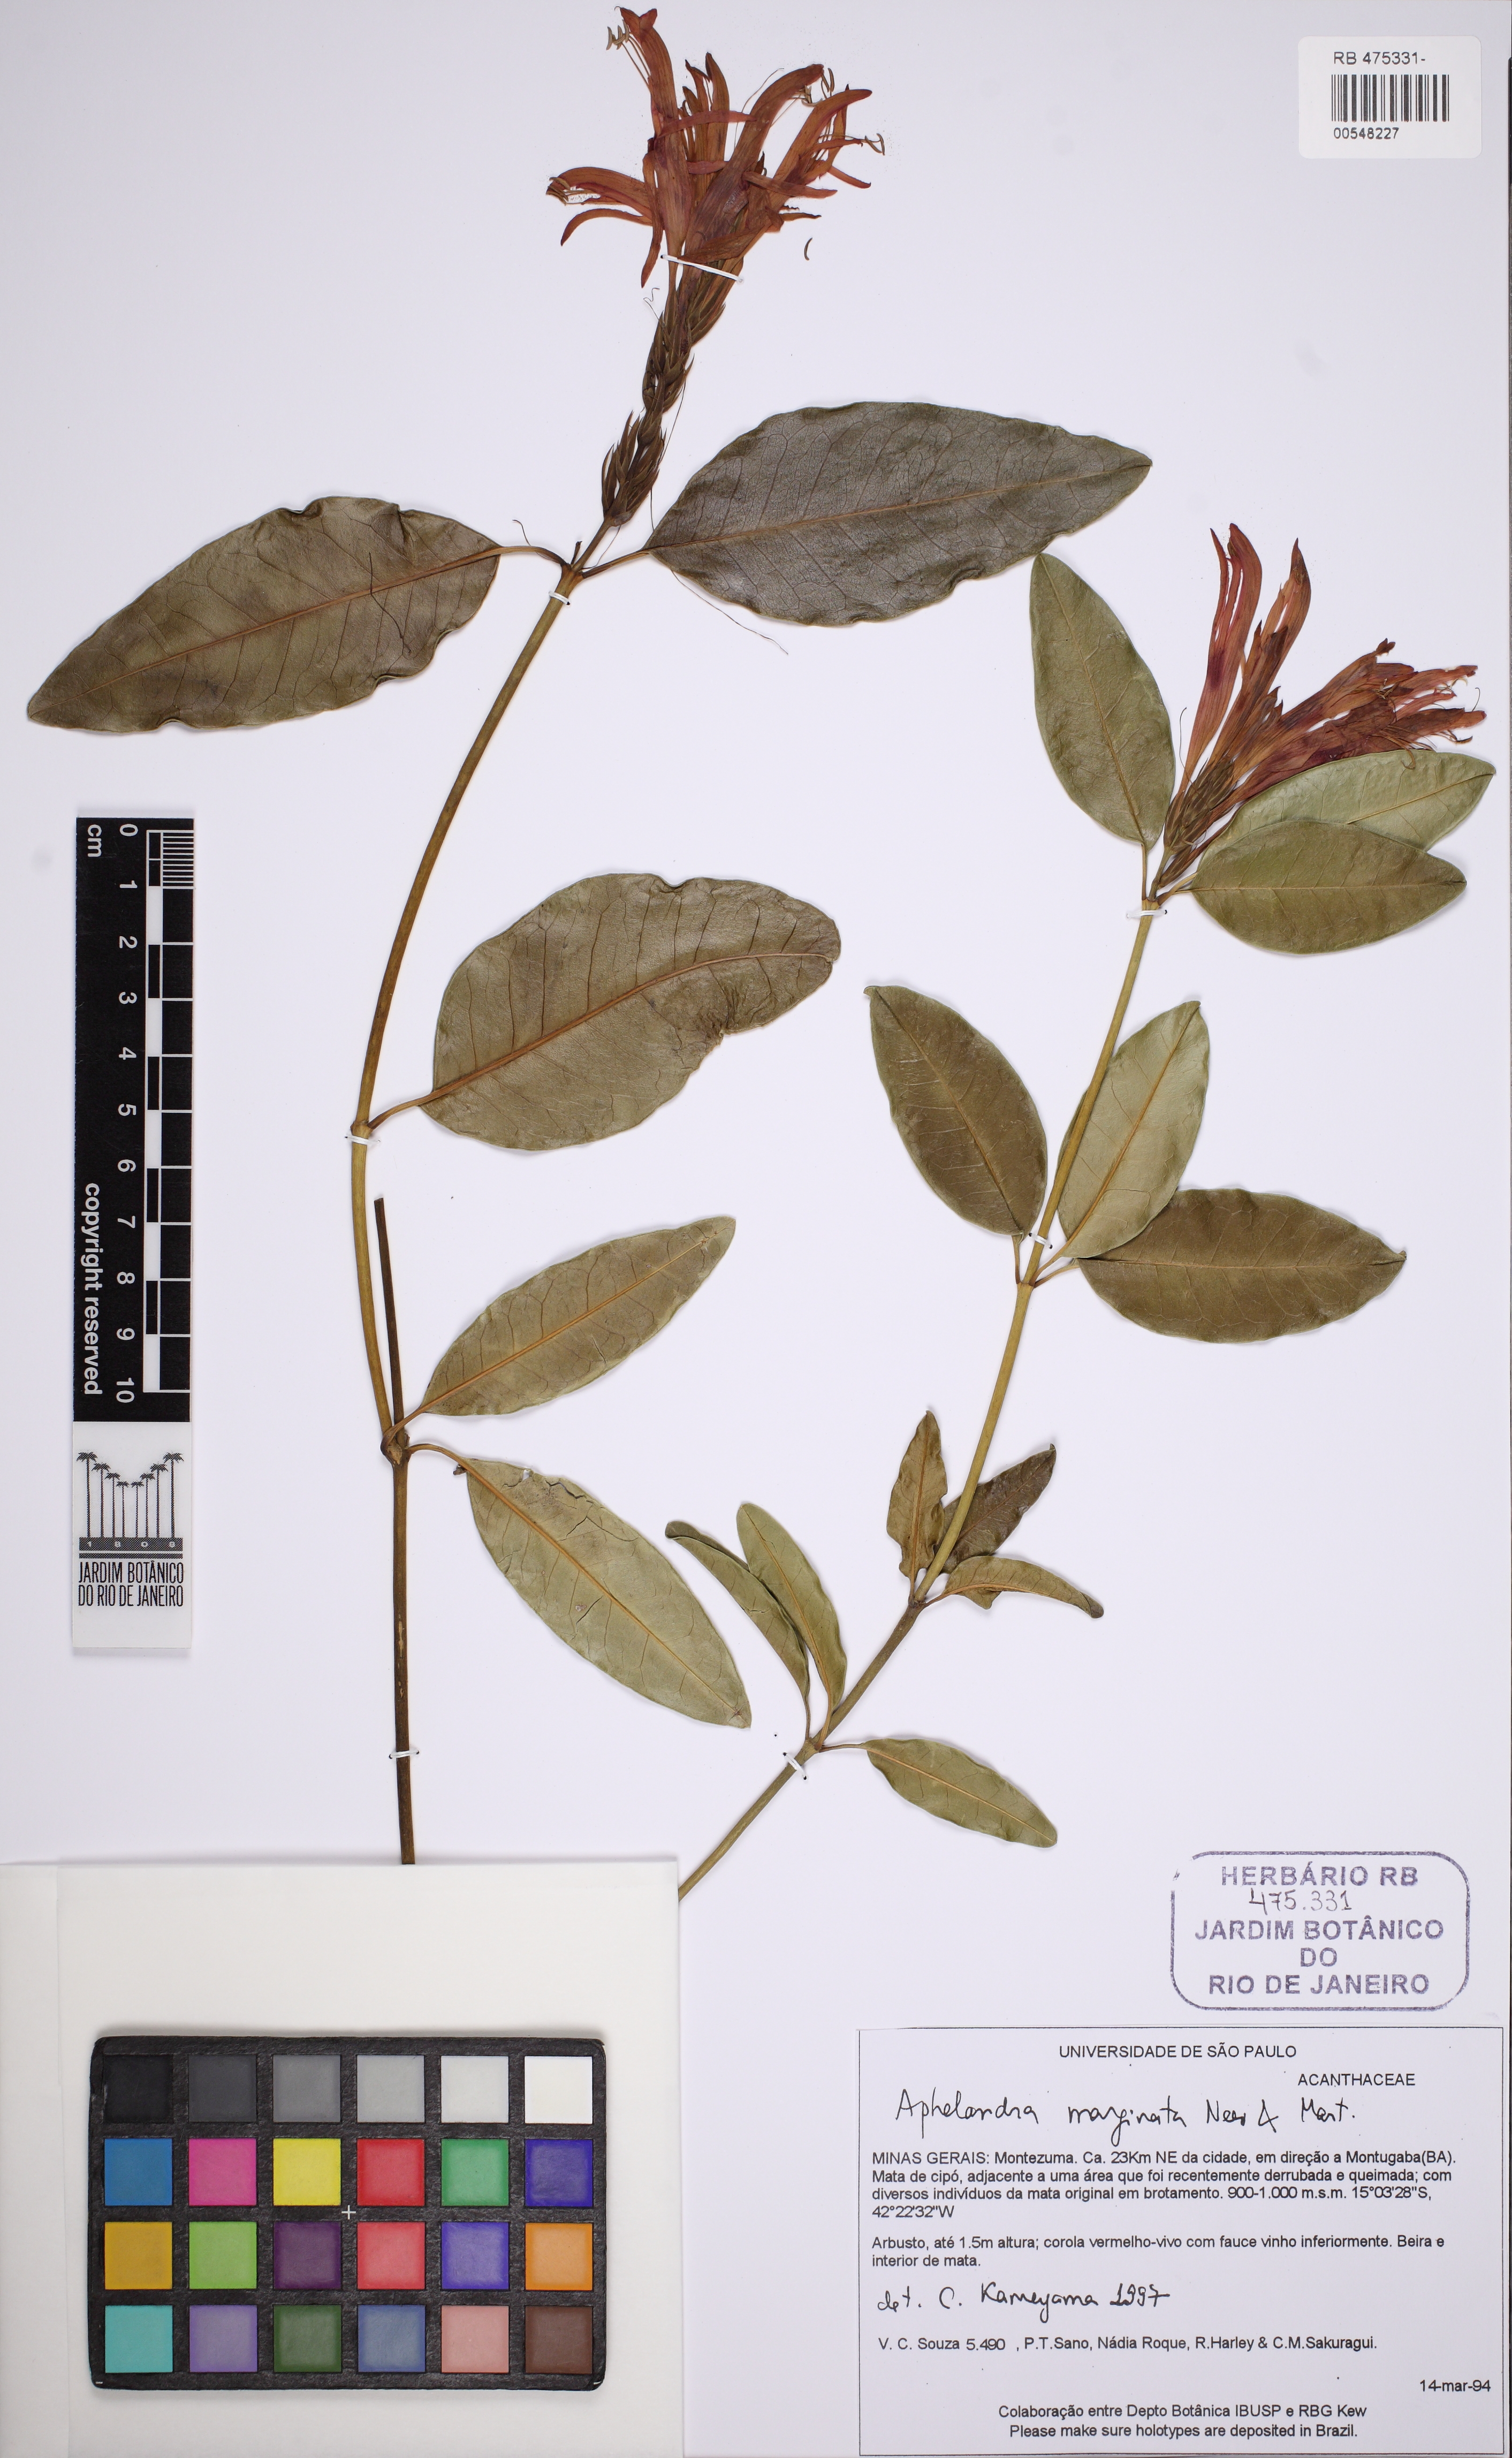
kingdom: Plantae
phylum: Tracheophyta
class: Magnoliopsida
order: Lamiales
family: Acanthaceae
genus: Aphelandra
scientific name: Aphelandra marginata
